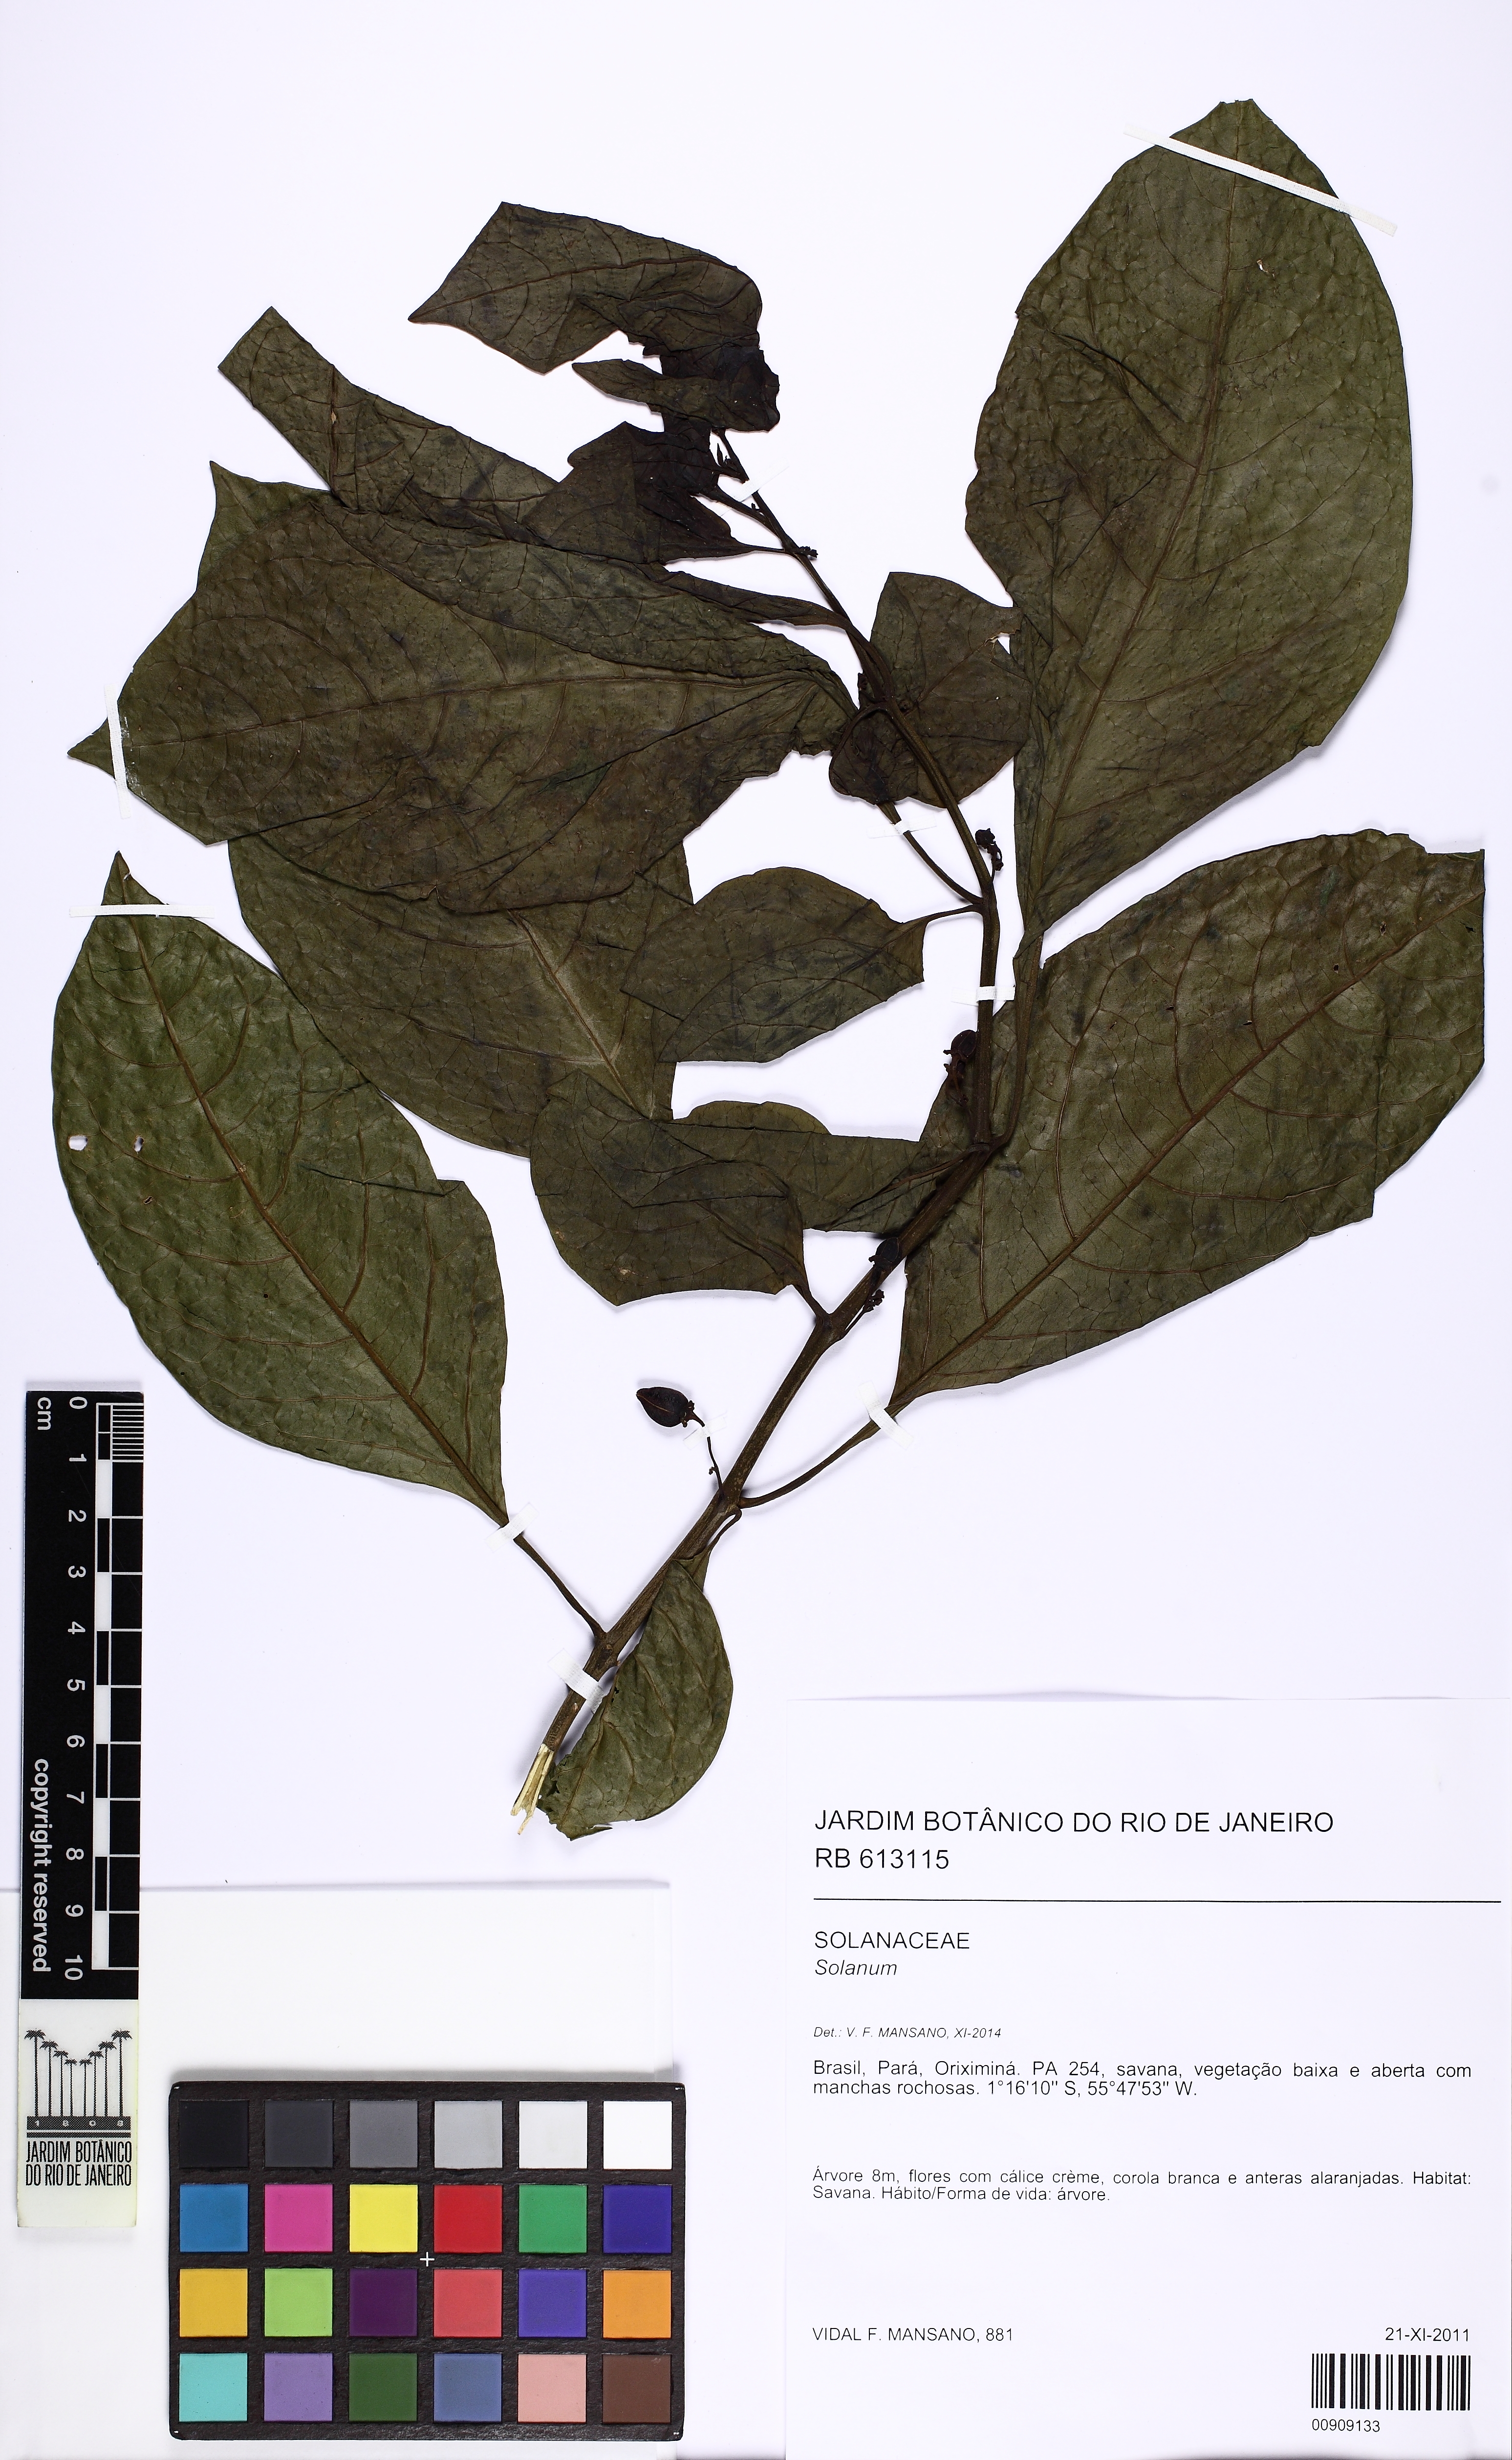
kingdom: Plantae
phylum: Tracheophyta
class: Magnoliopsida
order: Solanales
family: Solanaceae
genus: Solanum
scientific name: Solanum leucocarpon
